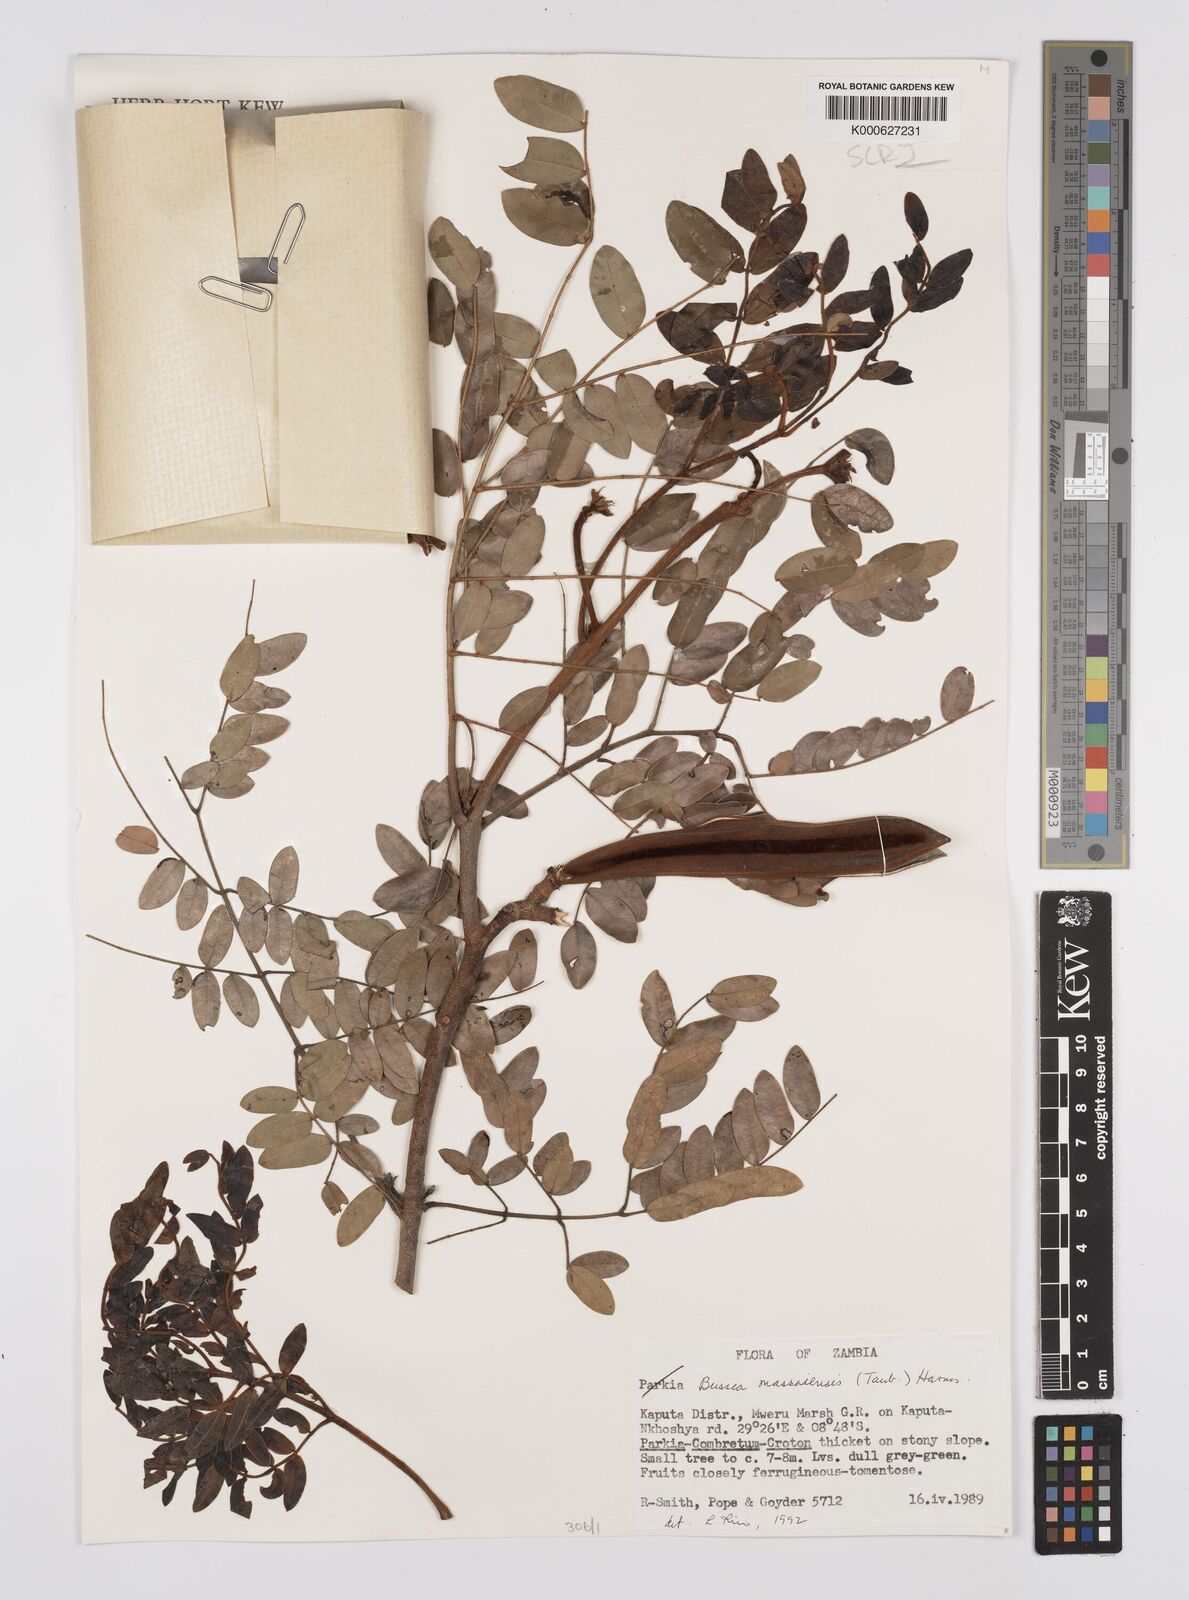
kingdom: Plantae
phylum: Tracheophyta
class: Magnoliopsida
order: Fabales
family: Fabaceae
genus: Bussea
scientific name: Bussea
